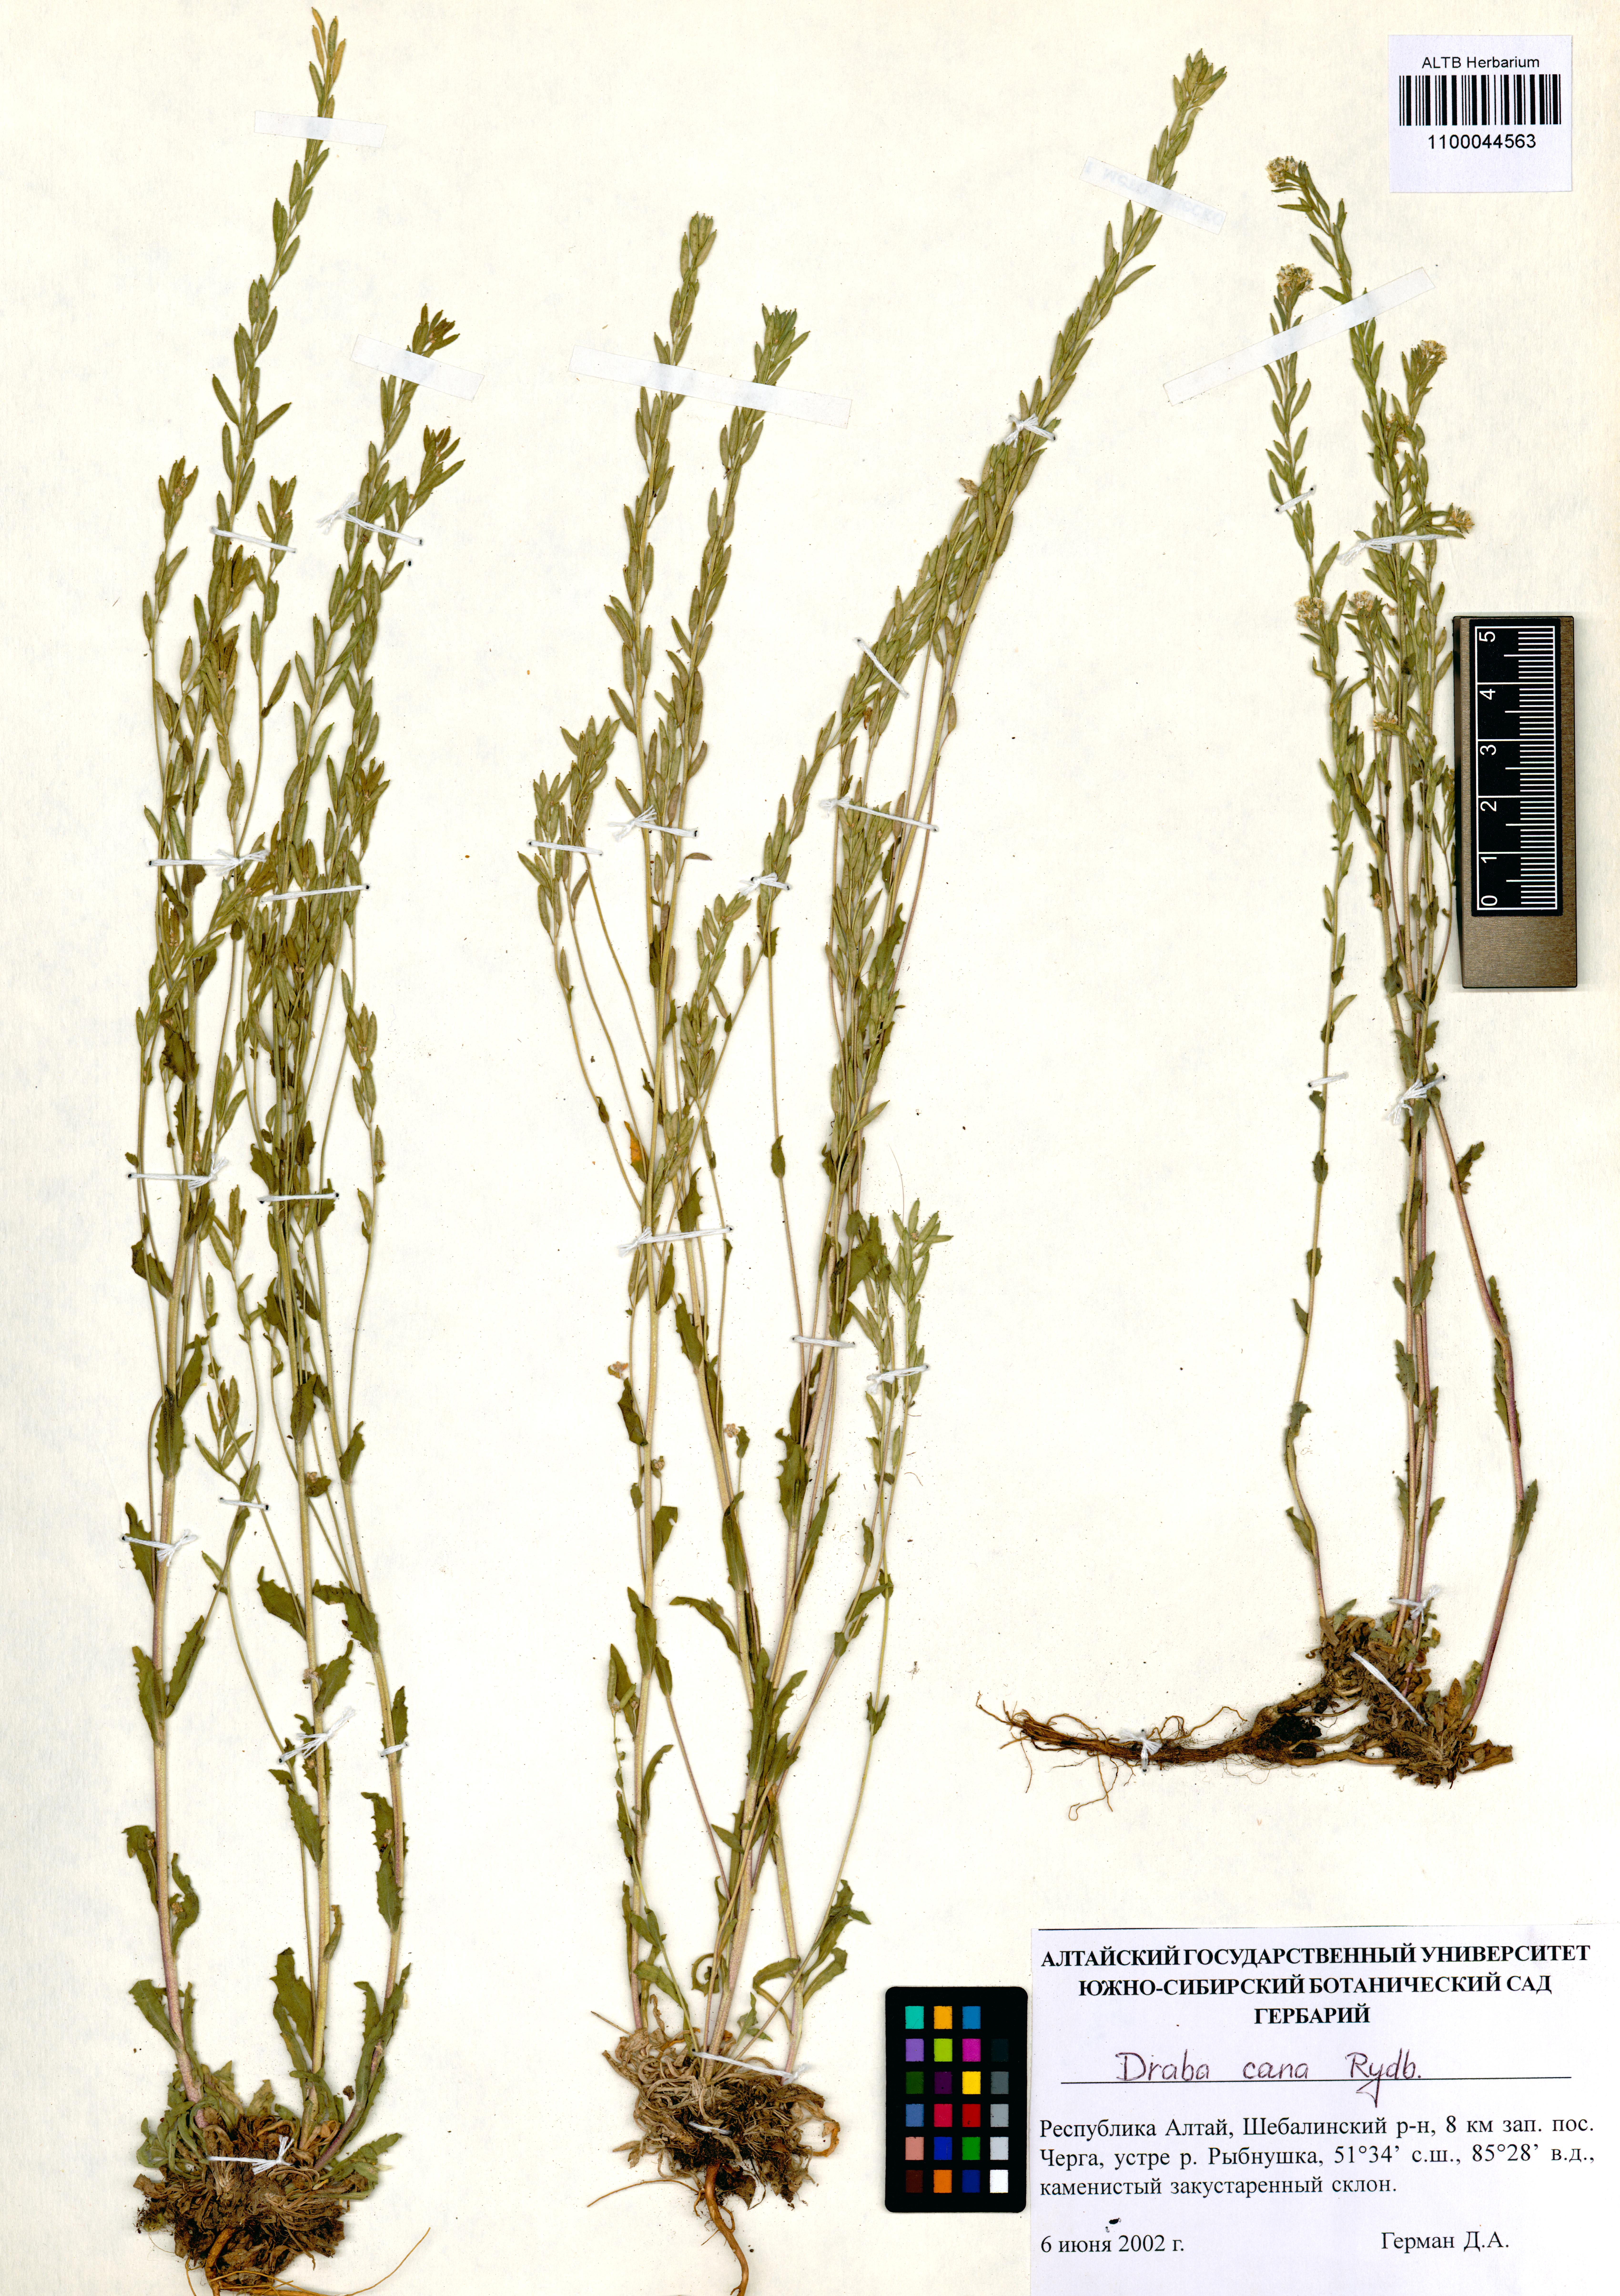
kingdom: Plantae
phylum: Tracheophyta
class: Magnoliopsida
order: Brassicales
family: Brassicaceae
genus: Draba
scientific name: Draba cana
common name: Hoary draba
